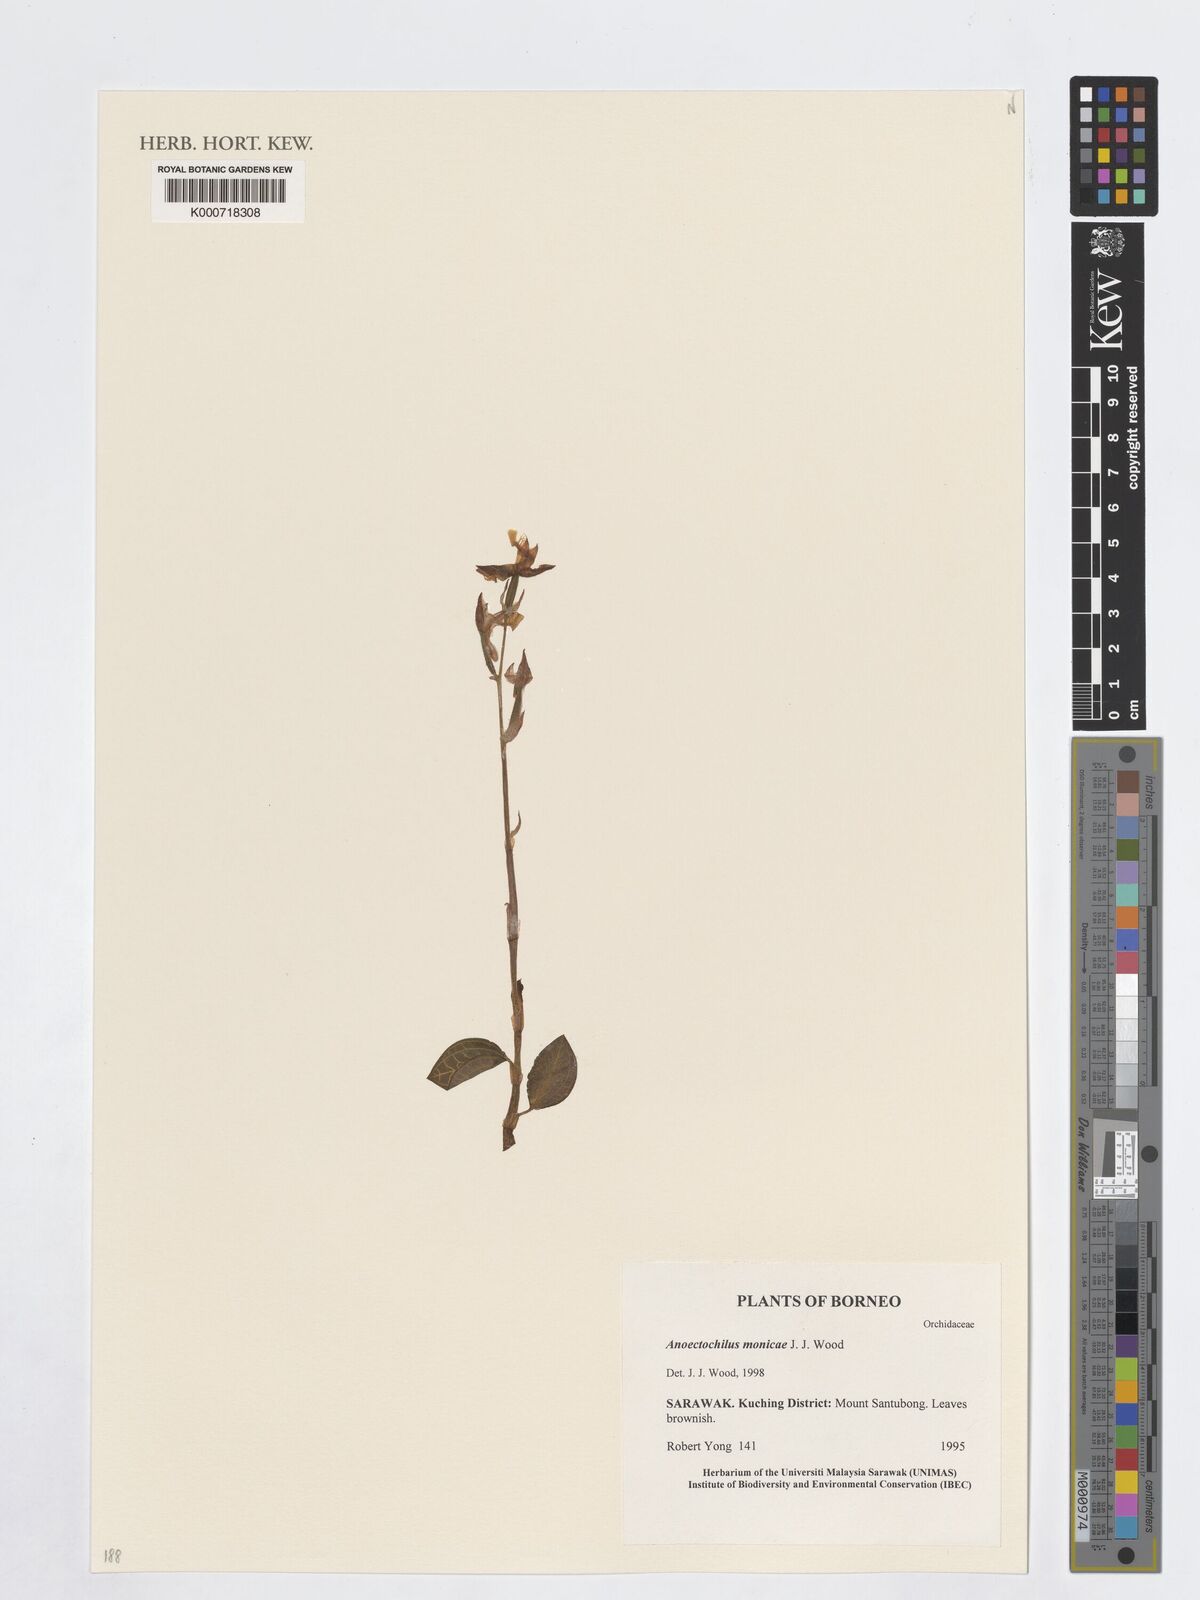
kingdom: Plantae
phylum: Tracheophyta
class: Liliopsida
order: Asparagales
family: Orchidaceae
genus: Anoectochilus
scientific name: Anoectochilus monicae
